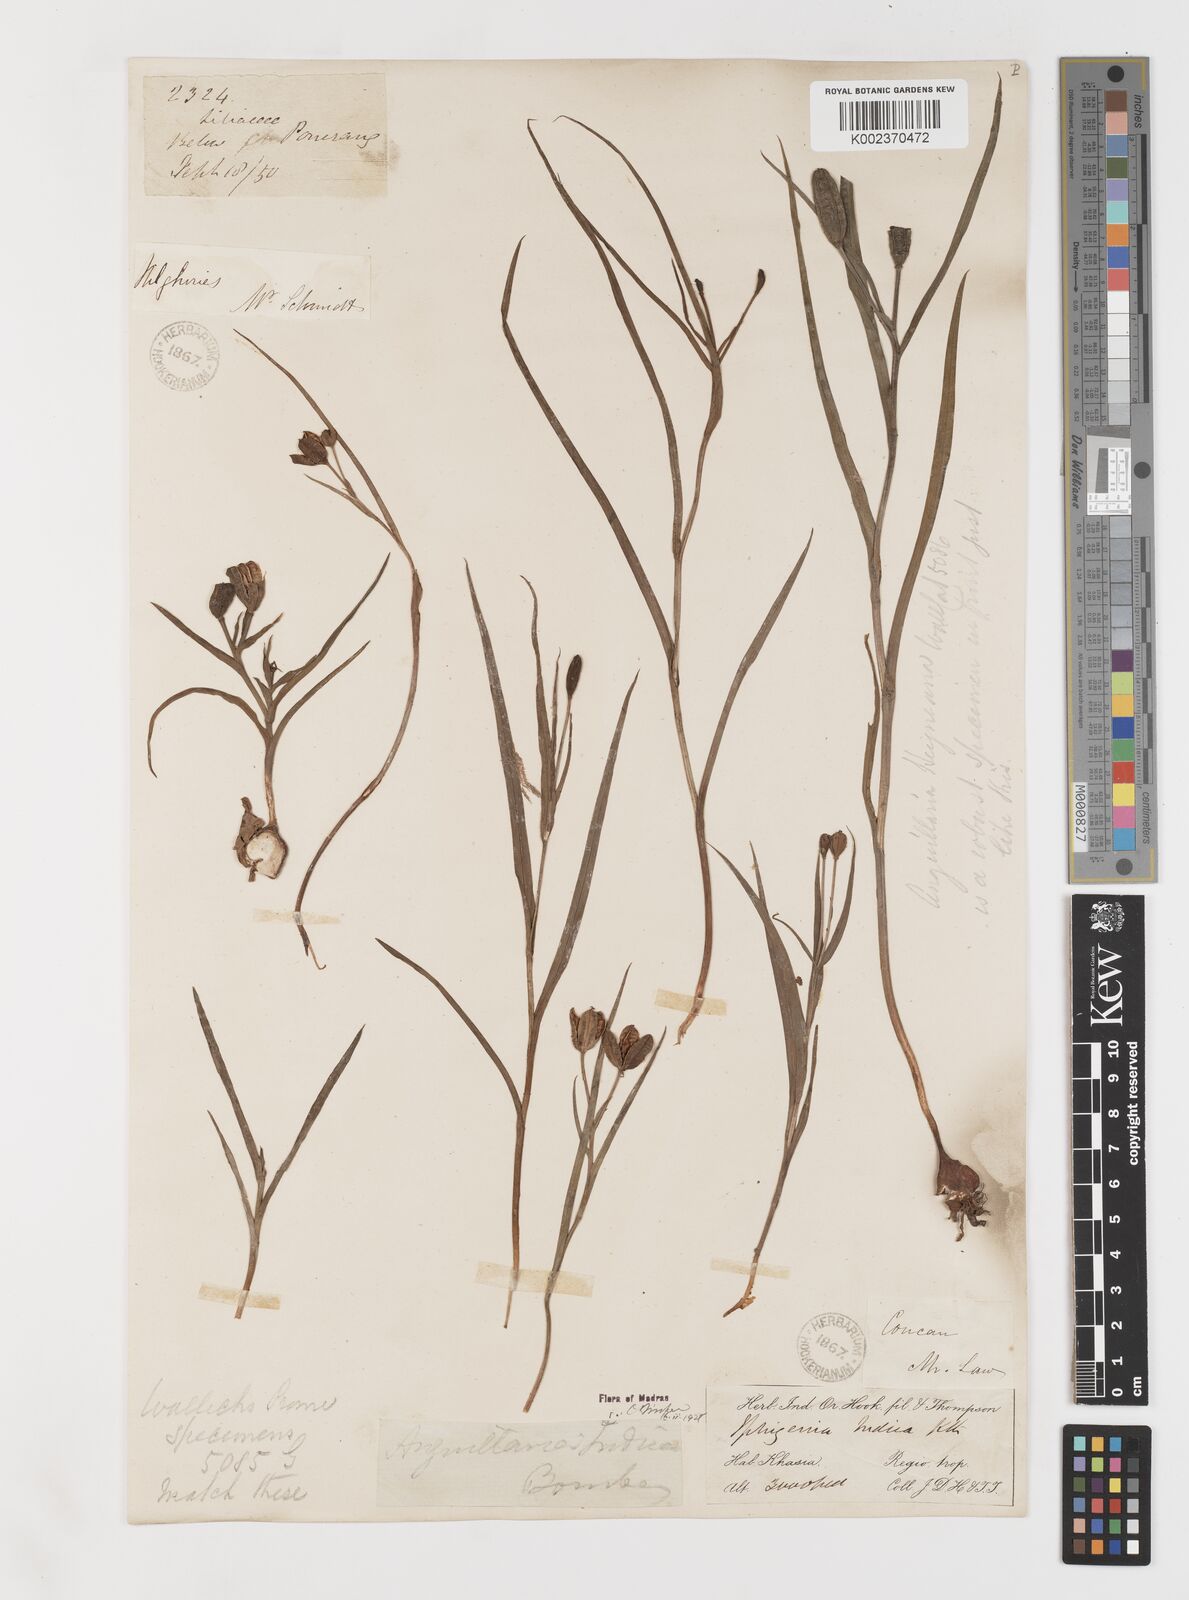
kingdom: Plantae
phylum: Tracheophyta
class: Liliopsida
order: Liliales
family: Colchicaceae
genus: Iphigenia
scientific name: Iphigenia indica
